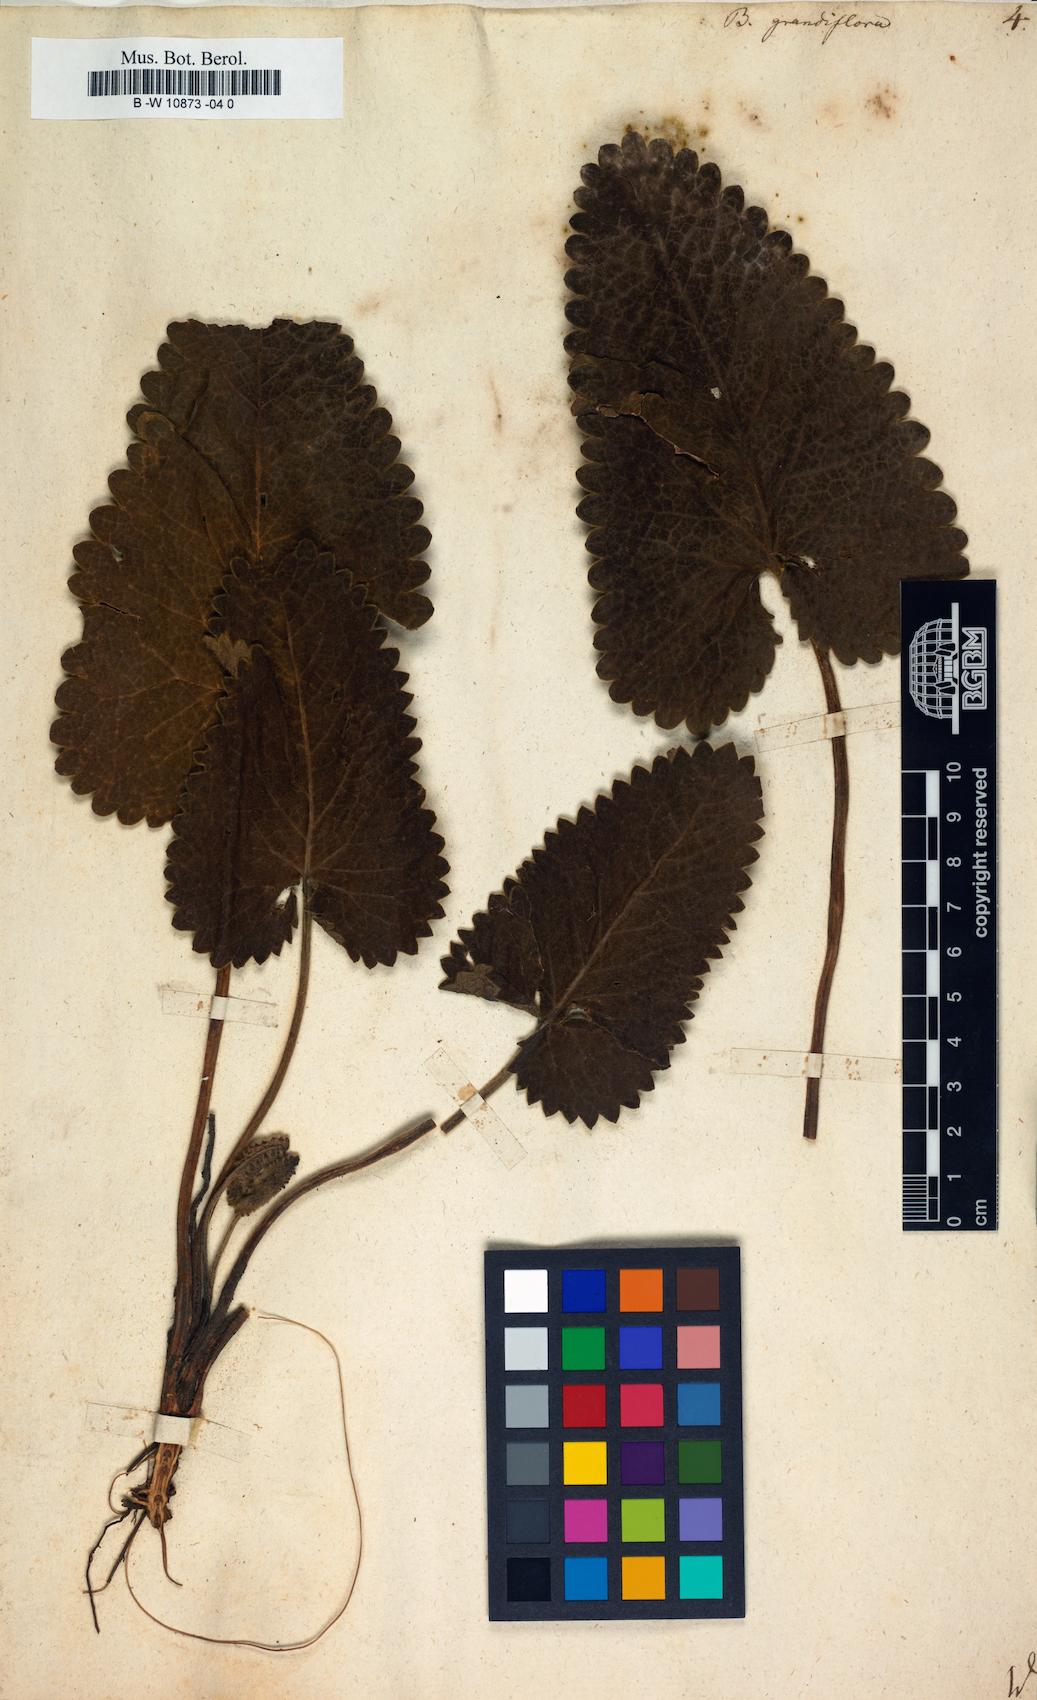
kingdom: Plantae
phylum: Tracheophyta
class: Magnoliopsida
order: Lamiales
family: Lamiaceae
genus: Betonica
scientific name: Betonica
